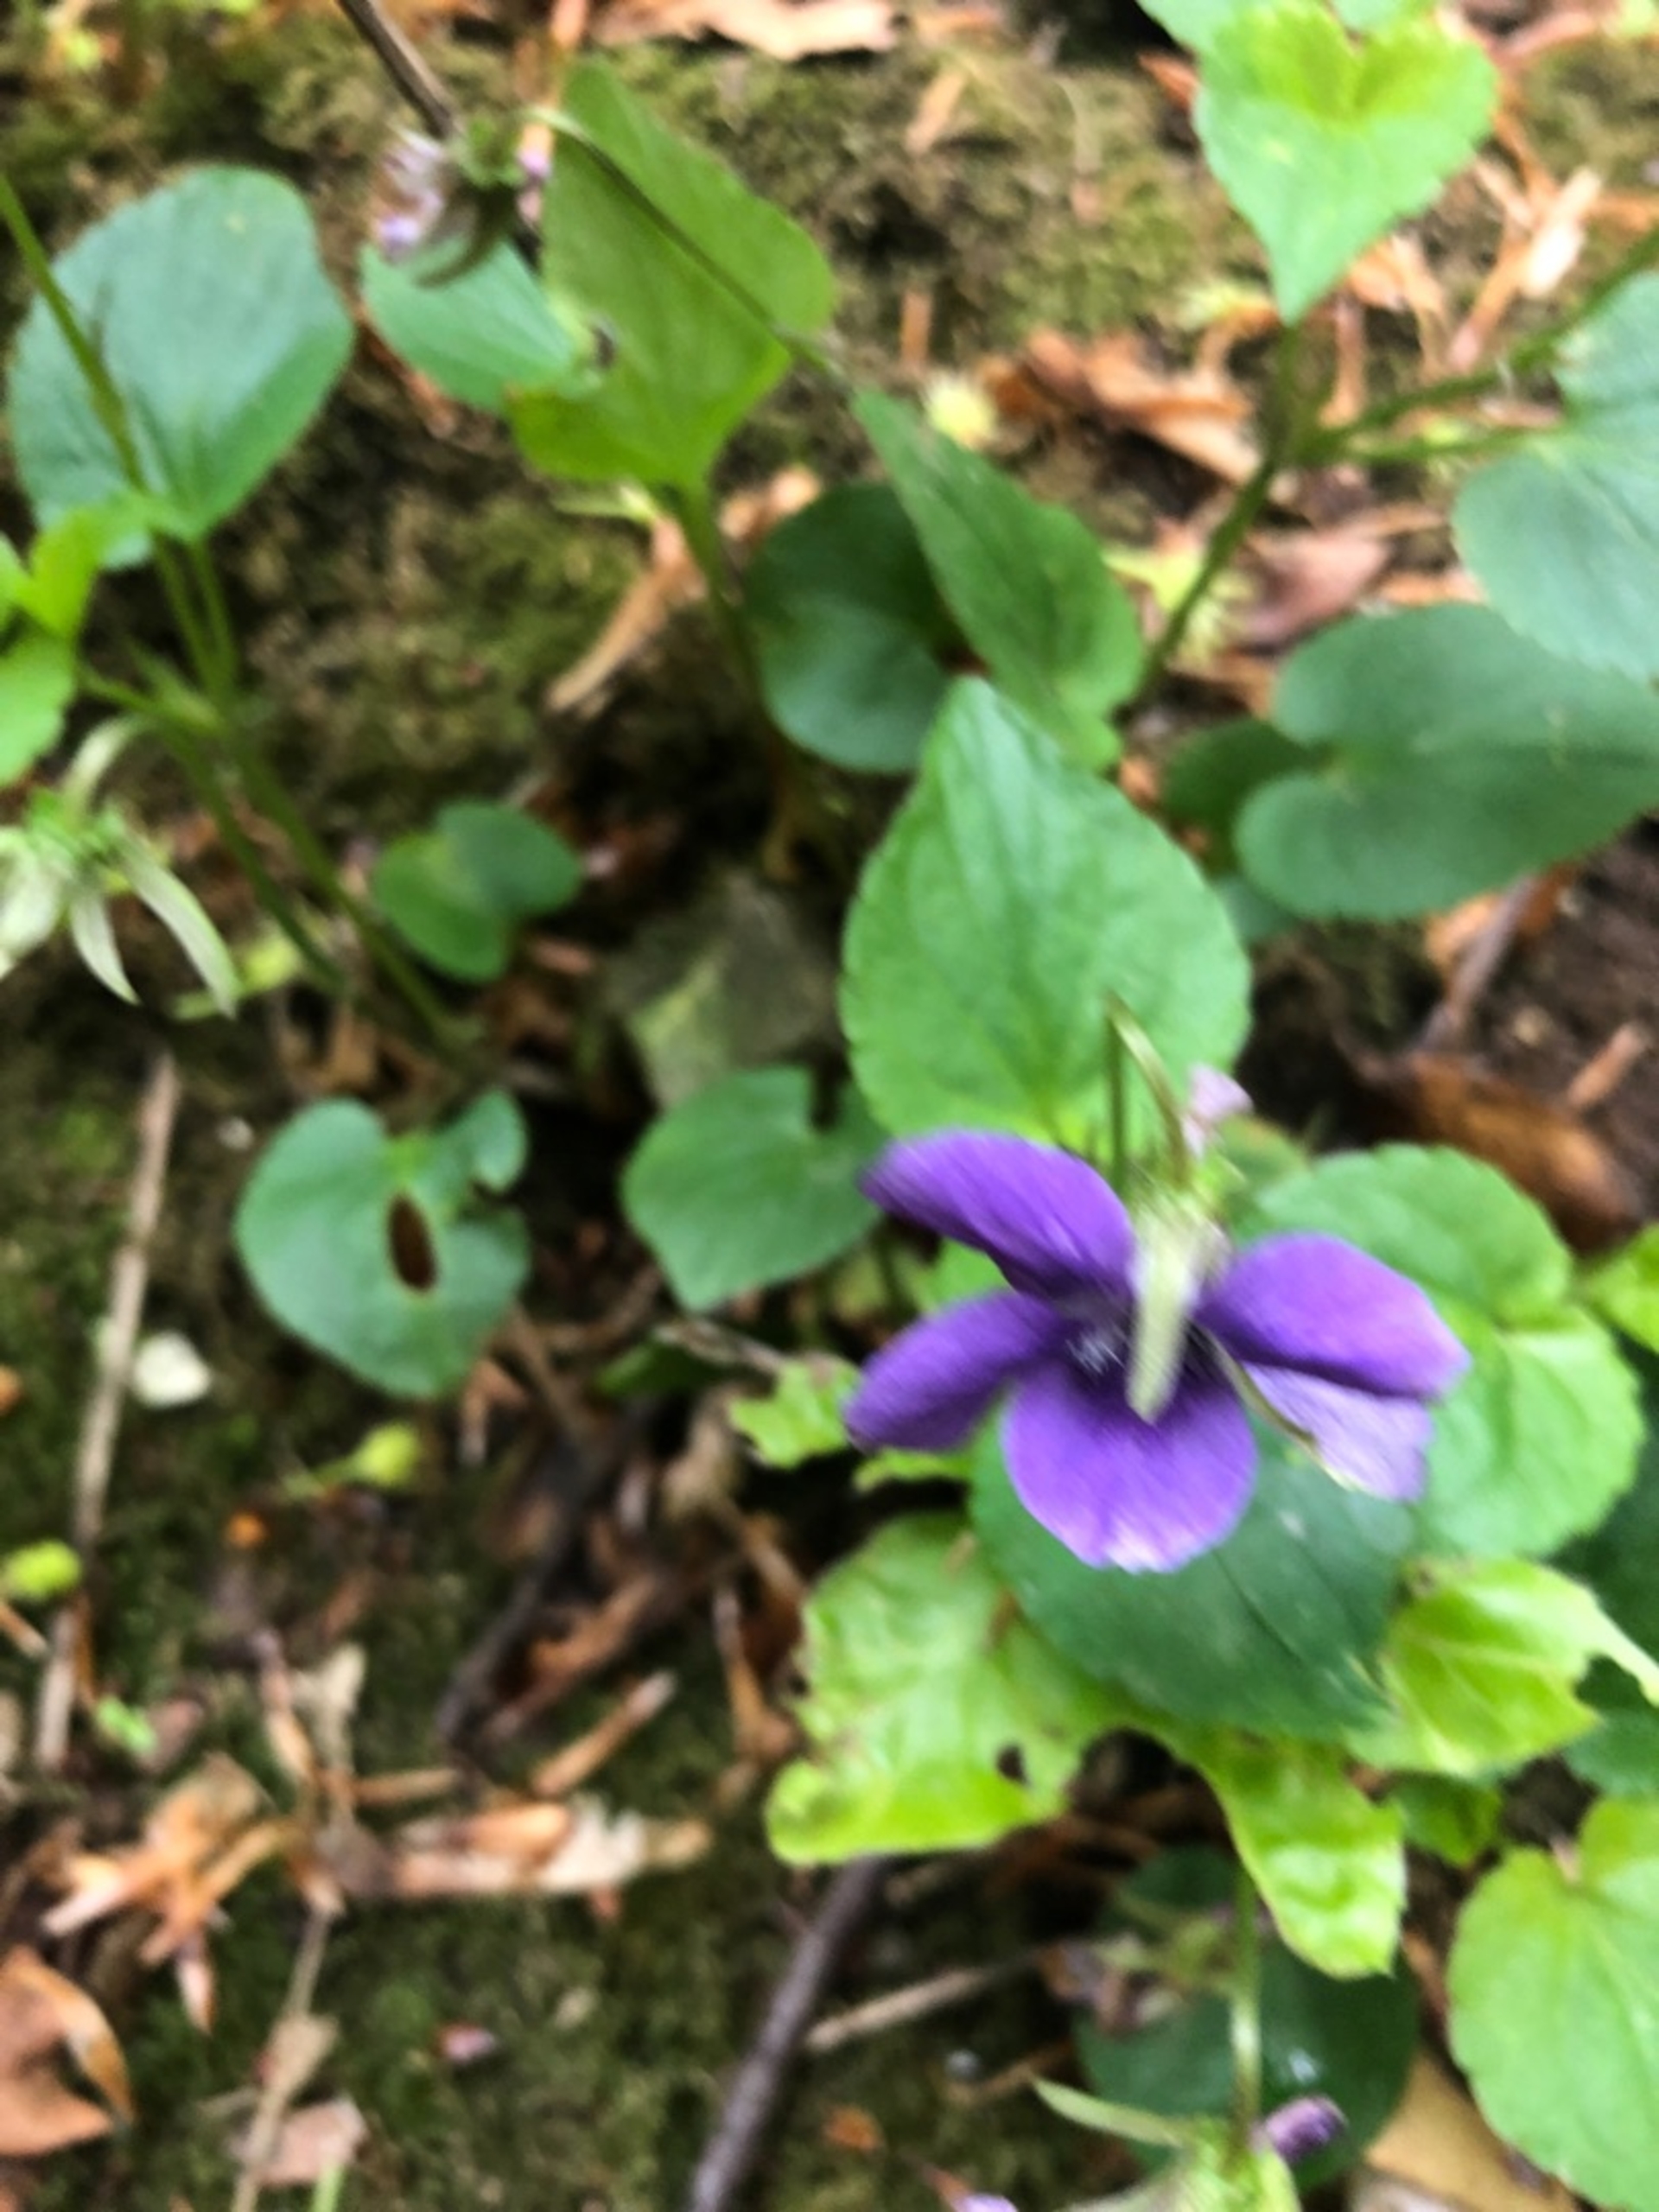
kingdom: Plantae
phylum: Tracheophyta
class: Magnoliopsida
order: Malpighiales
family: Violaceae
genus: Viola
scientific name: Viola reichenbachiana
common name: Skov-viol
